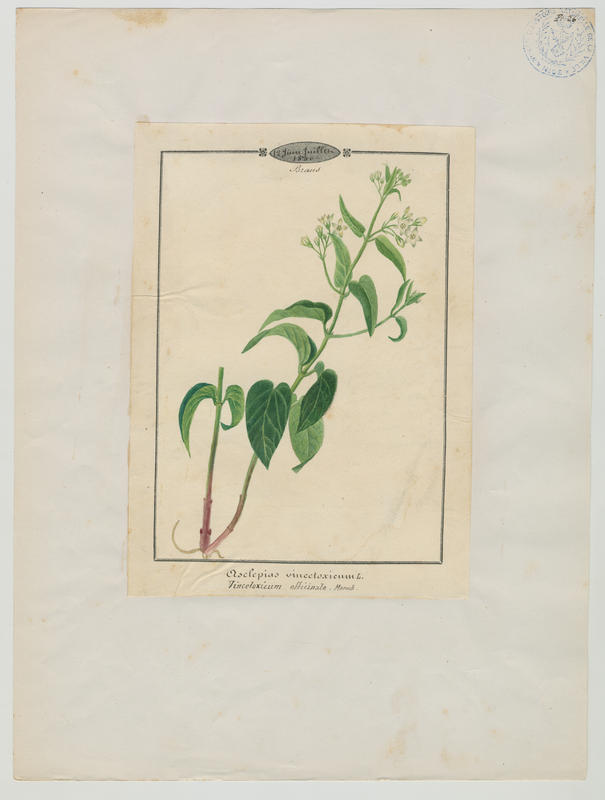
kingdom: Plantae
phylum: Tracheophyta
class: Magnoliopsida
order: Gentianales
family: Apocynaceae
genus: Vincetoxicum
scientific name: Vincetoxicum hirundinaria
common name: White swallowwort
